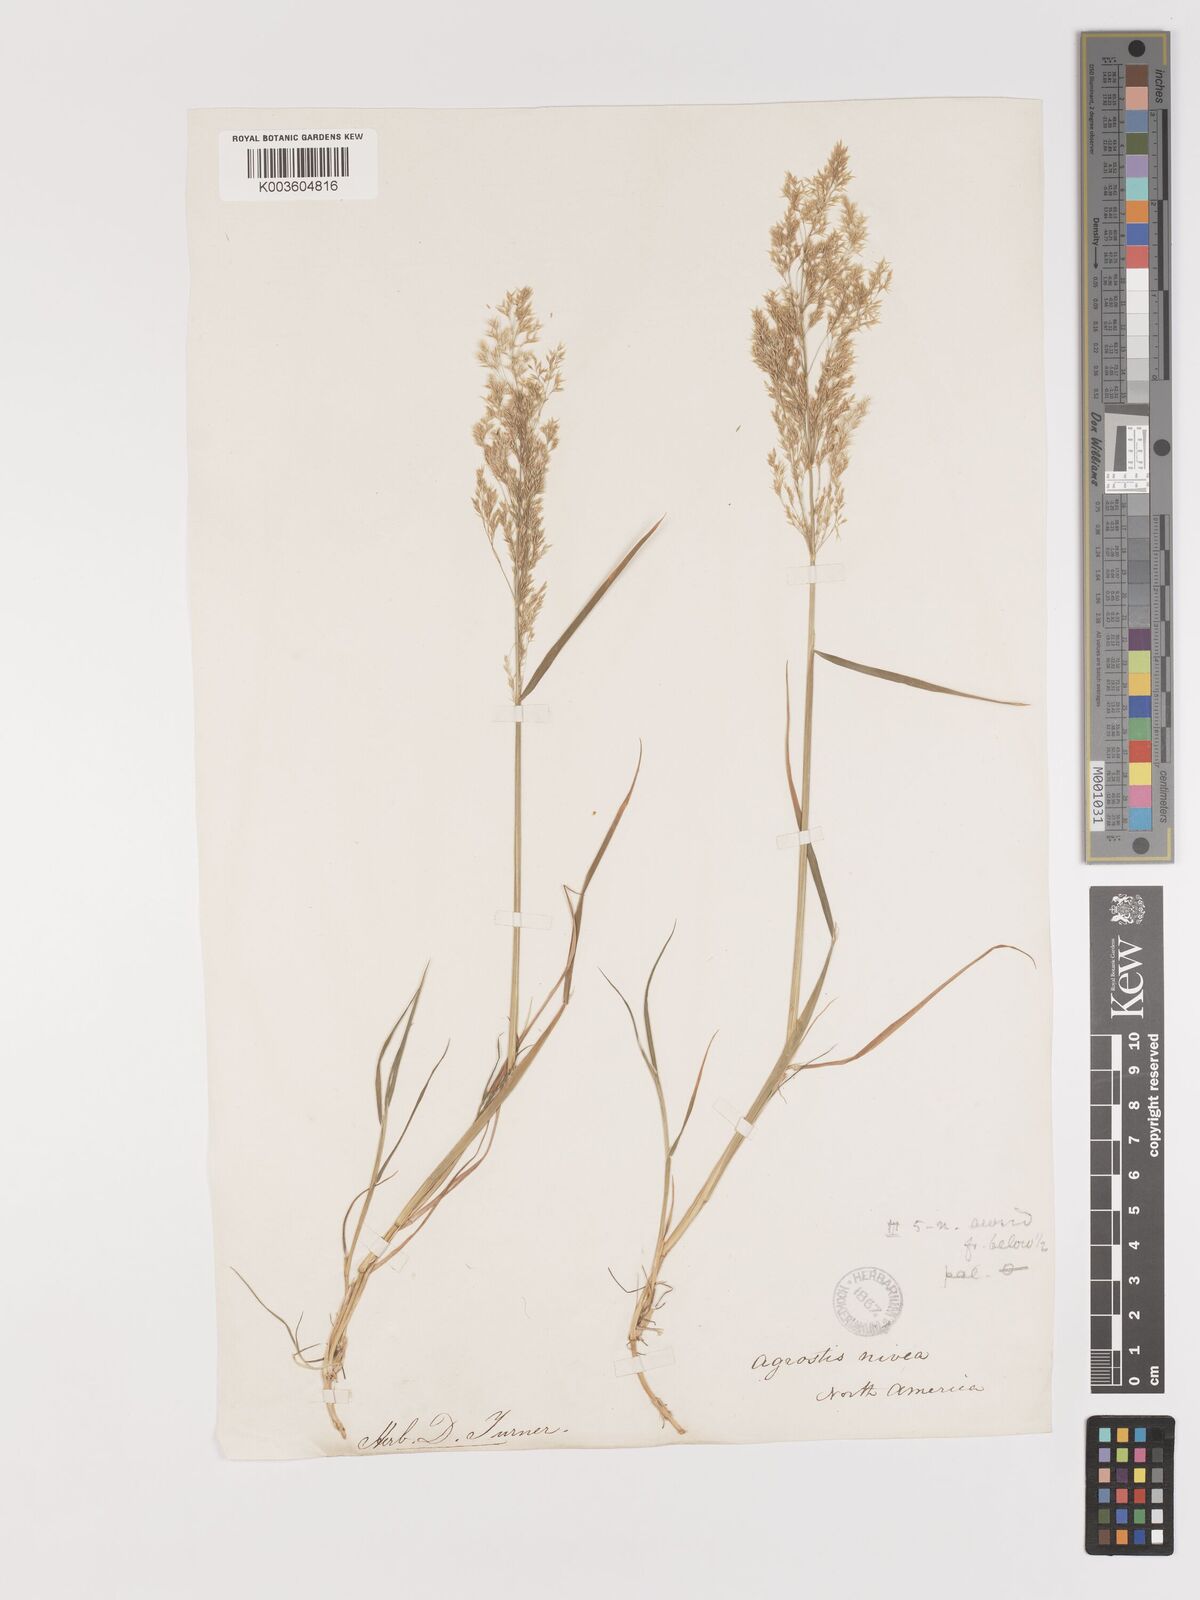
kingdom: Plantae
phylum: Tracheophyta
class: Liliopsida
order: Poales
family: Poaceae
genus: Agrostis
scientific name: Agrostis
